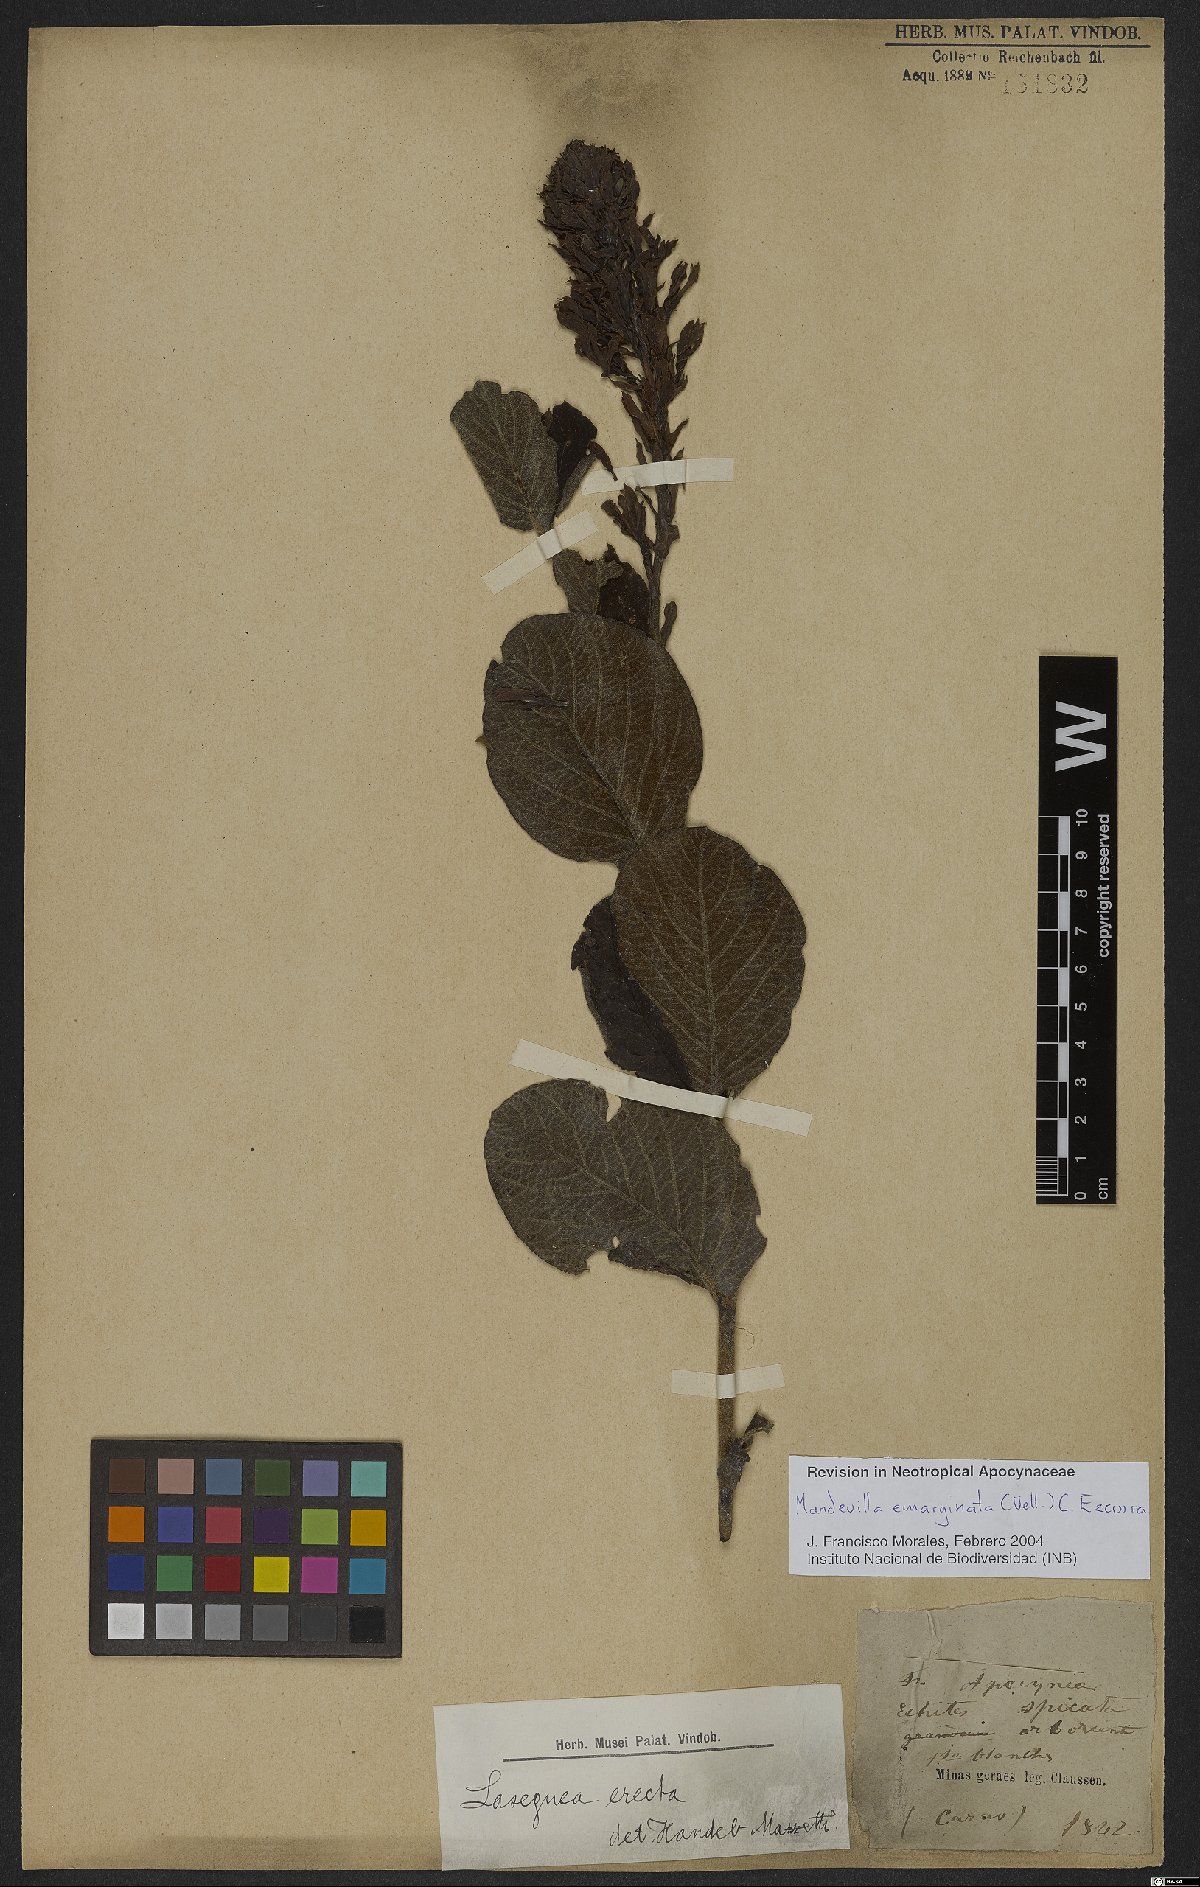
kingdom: Plantae
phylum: Tracheophyta
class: Magnoliopsida
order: Gentianales
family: Apocynaceae
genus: Mandevilla
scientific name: Mandevilla emarginata
